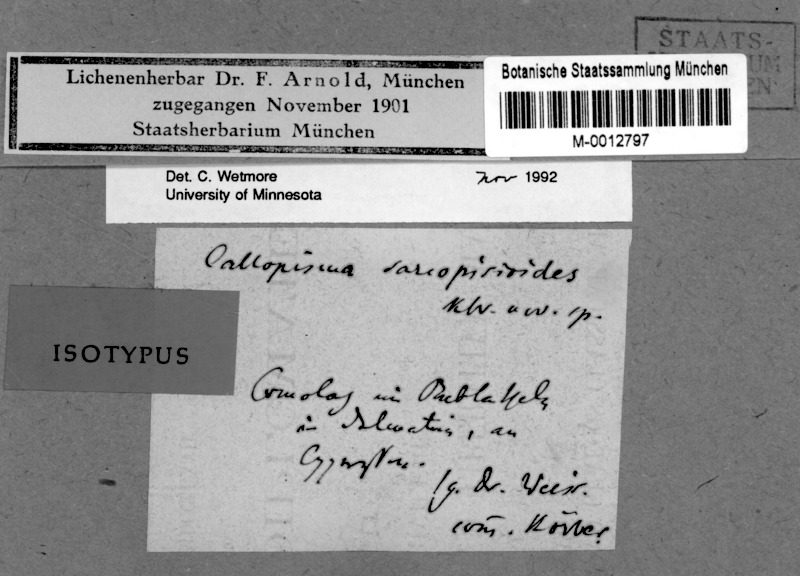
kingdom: Fungi
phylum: Ascomycota
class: Lecanoromycetes
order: Teloschistales
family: Teloschistaceae
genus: Caloplaca
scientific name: Caloplaca obscurella
